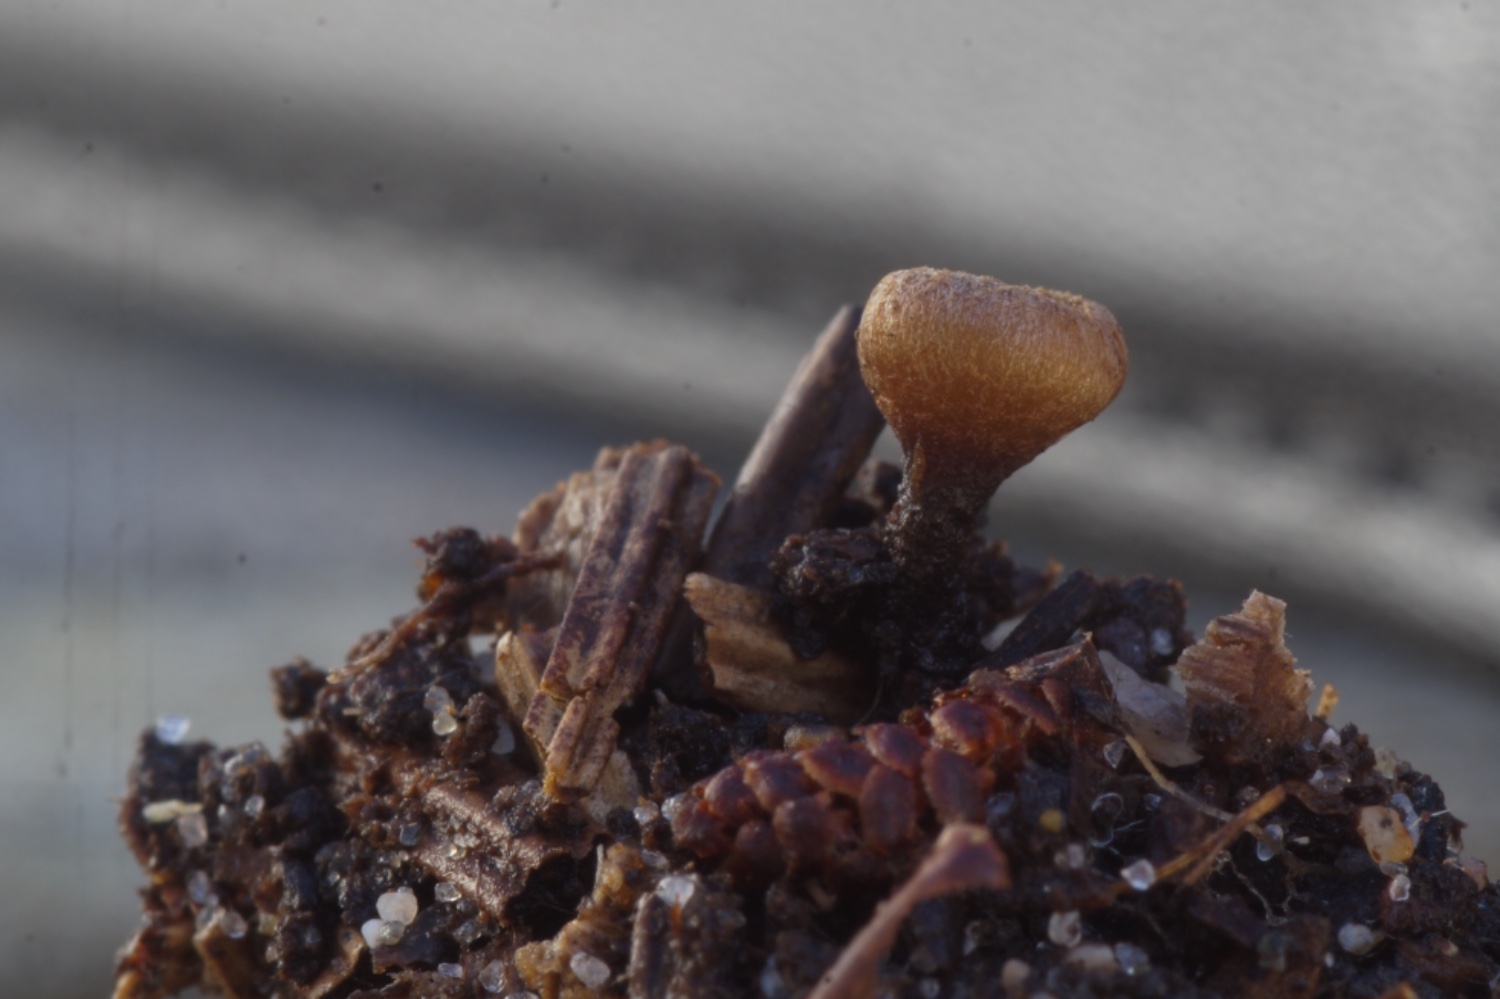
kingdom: Fungi
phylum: Ascomycota
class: Leotiomycetes
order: Helotiales
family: Rutstroemiaceae
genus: Rutstroemia
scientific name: Rutstroemia firma
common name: gren-brunskive
